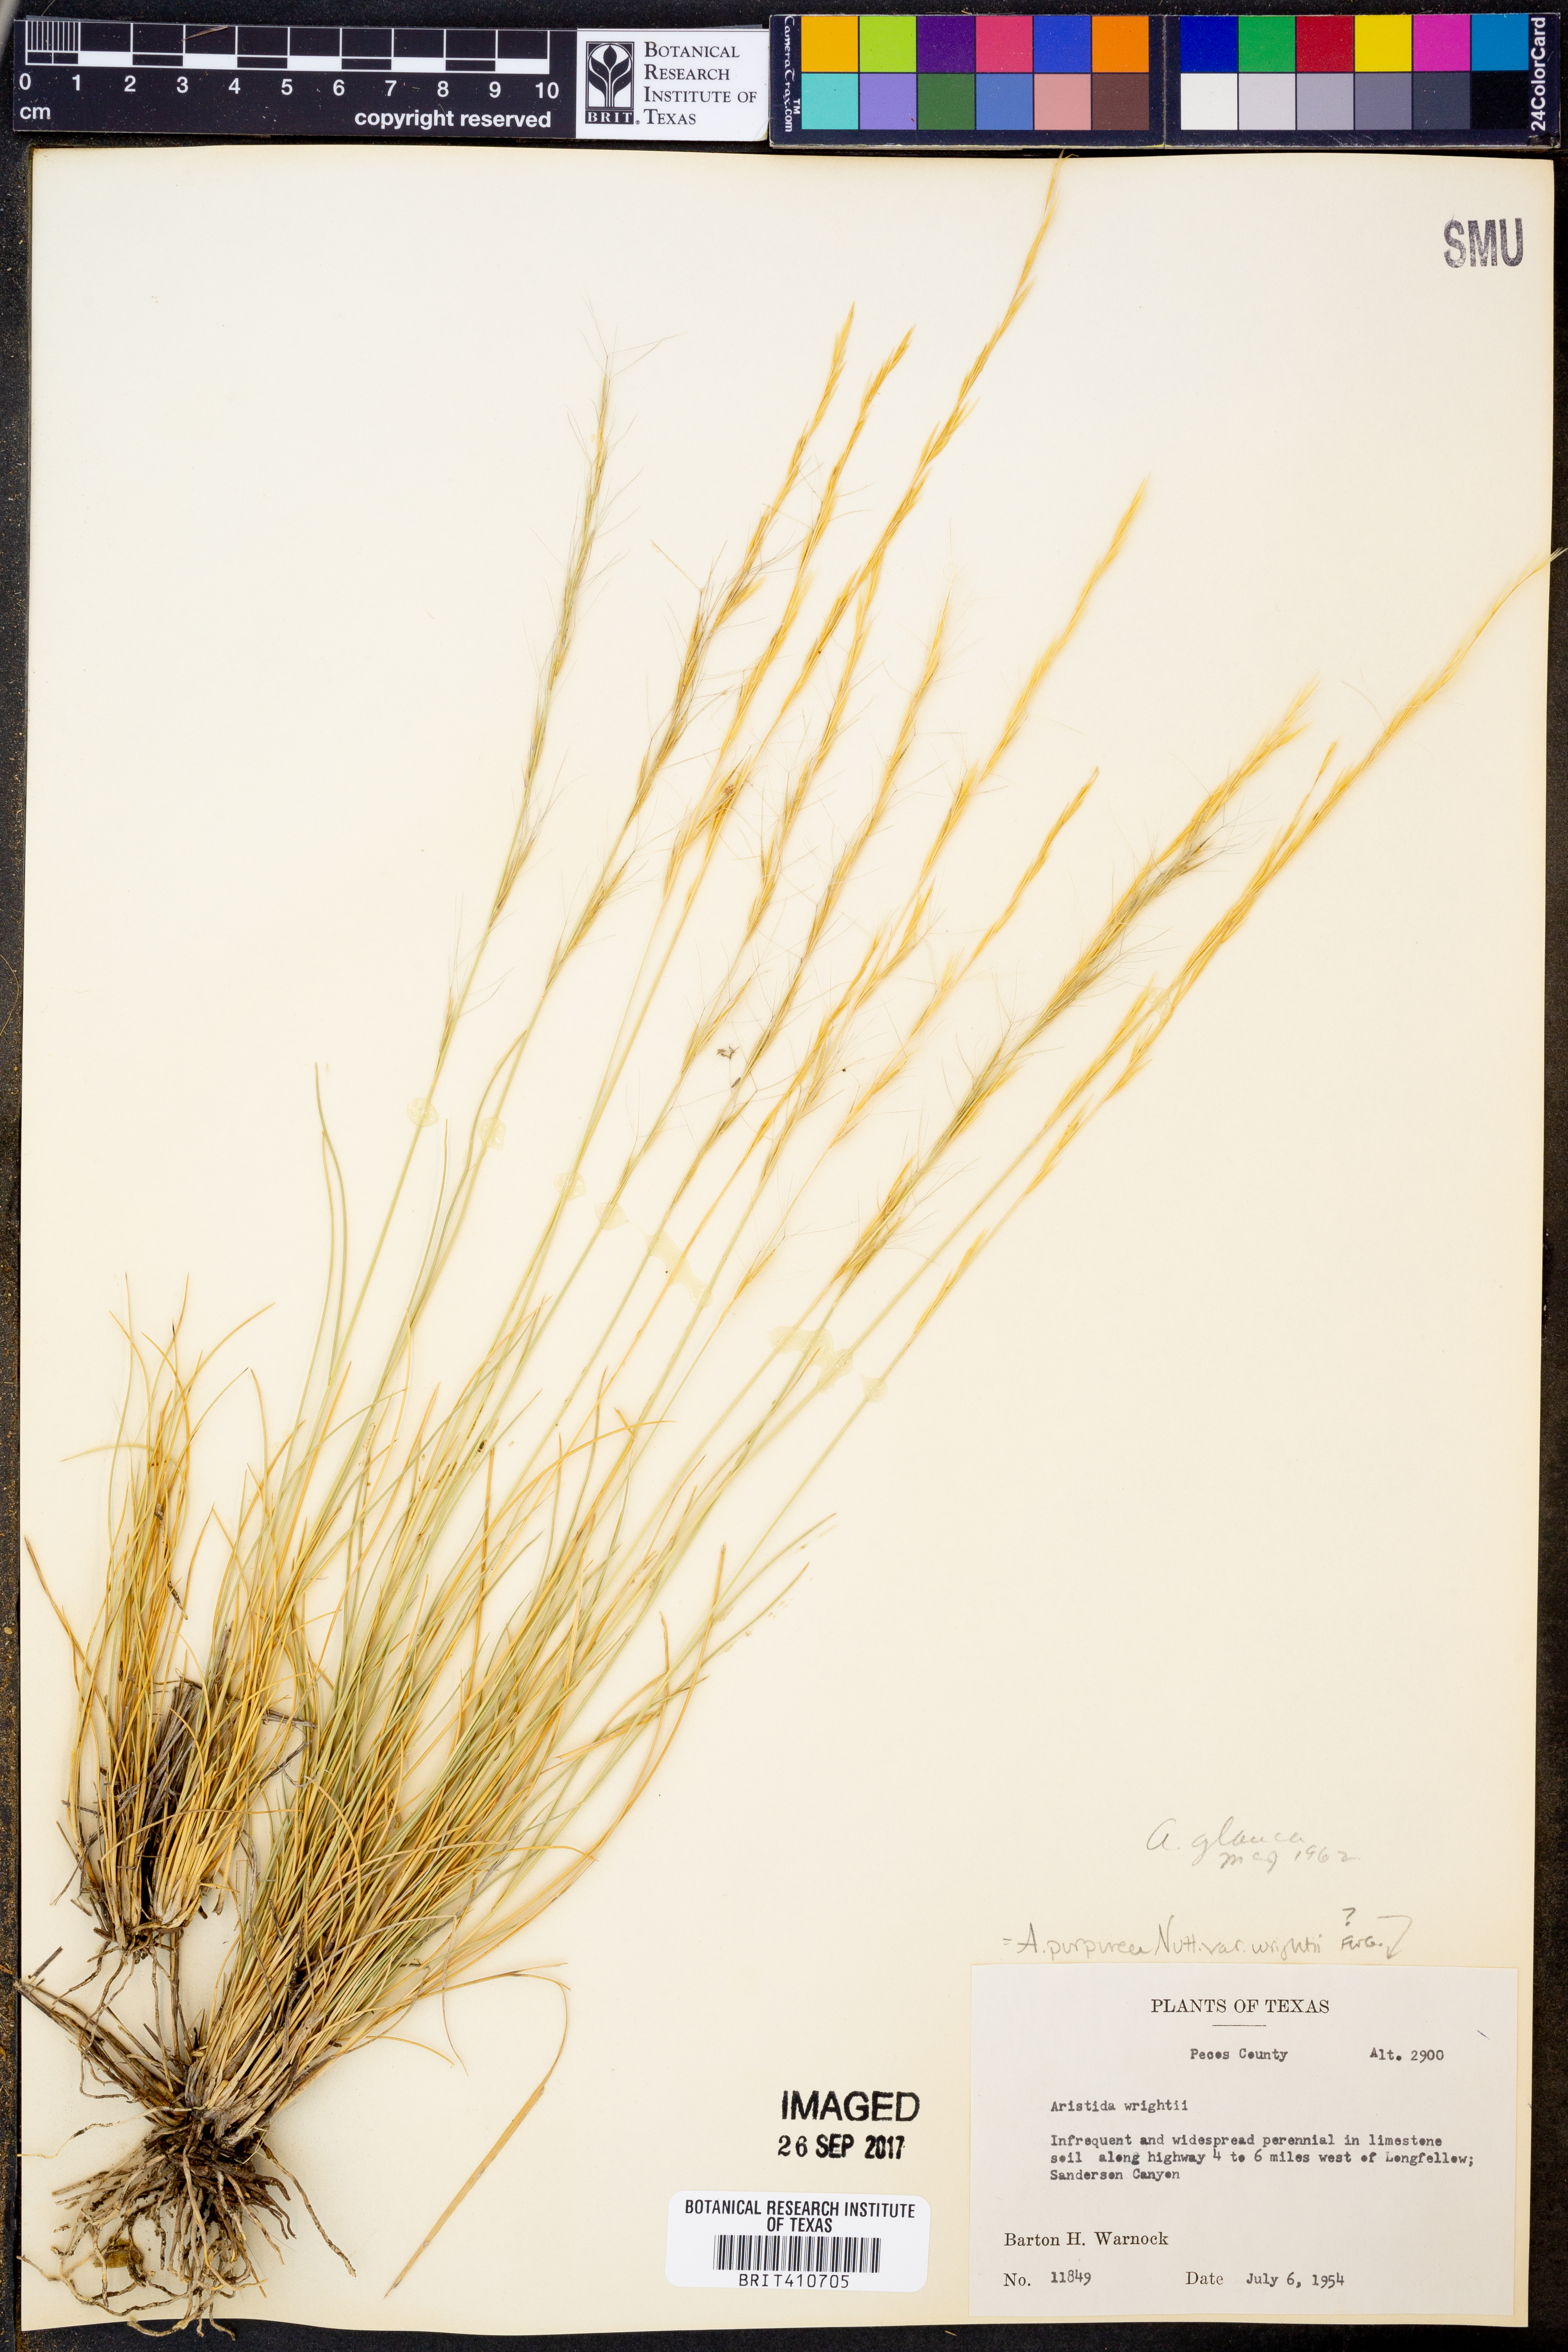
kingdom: Plantae
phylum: Tracheophyta
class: Liliopsida
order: Poales
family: Poaceae
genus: Aristida
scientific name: Aristida glauca
